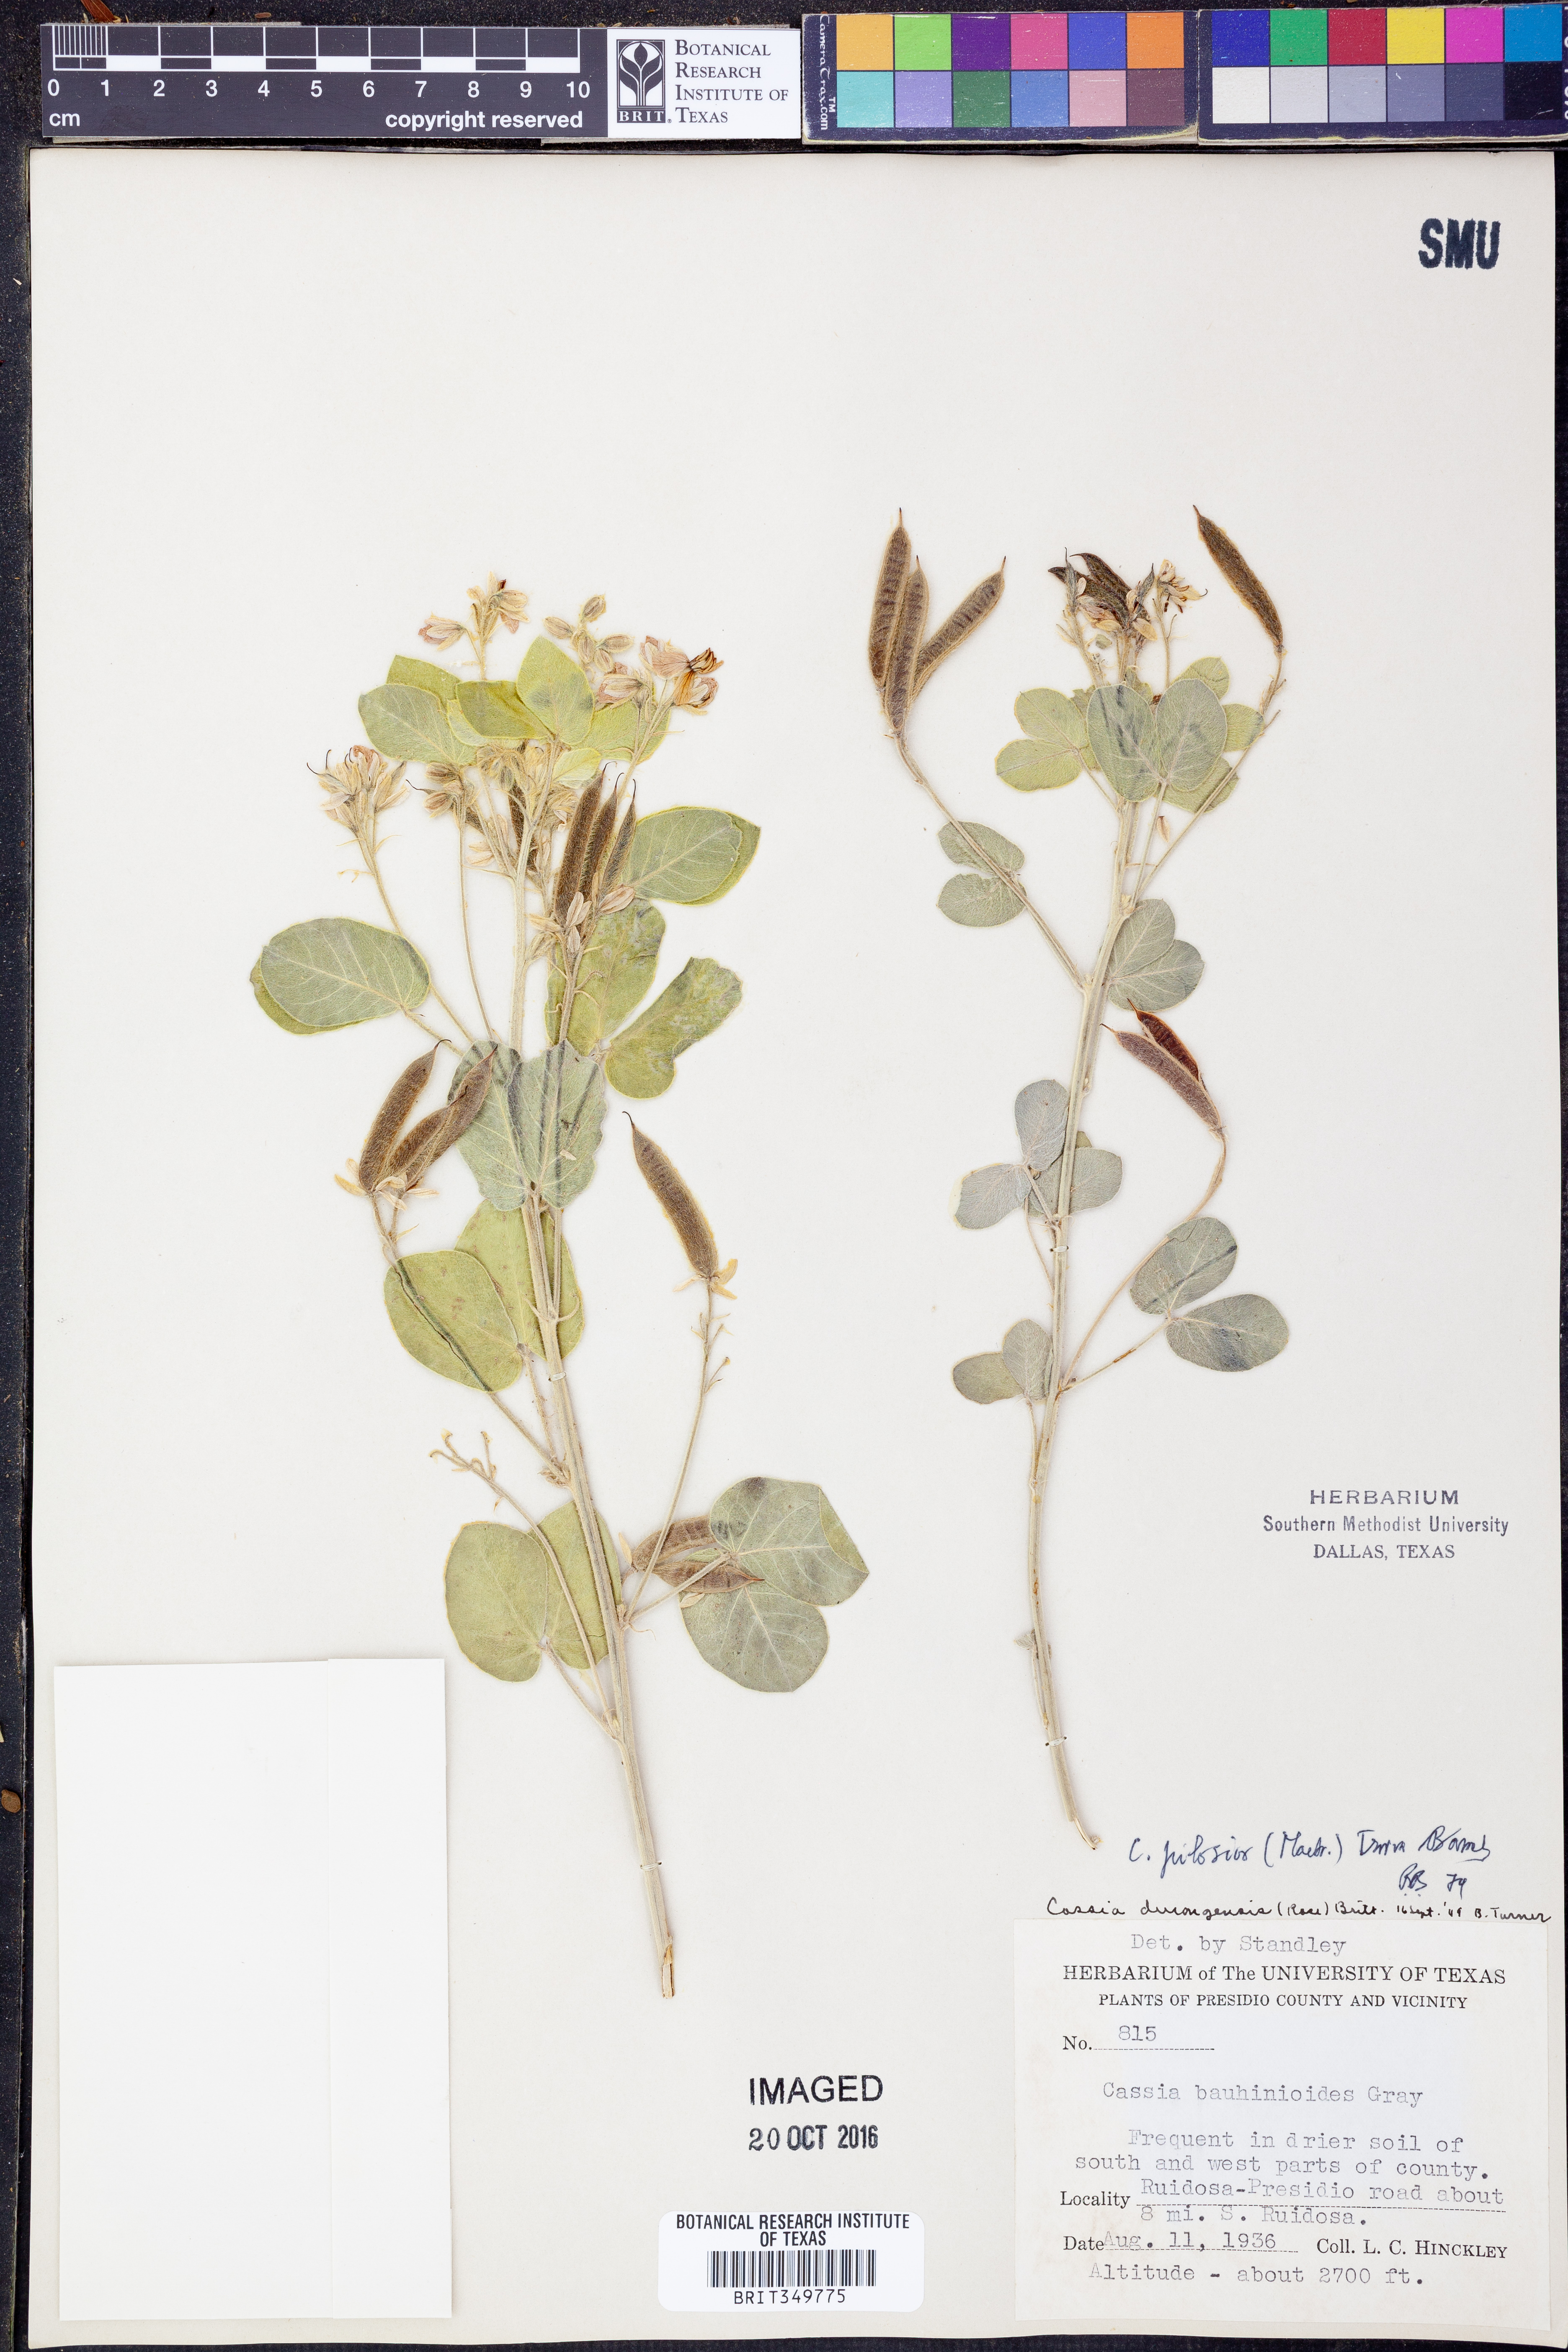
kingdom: Plantae
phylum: Tracheophyta
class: Magnoliopsida
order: Fabales
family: Fabaceae
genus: Senna
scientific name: Senna pilosior
